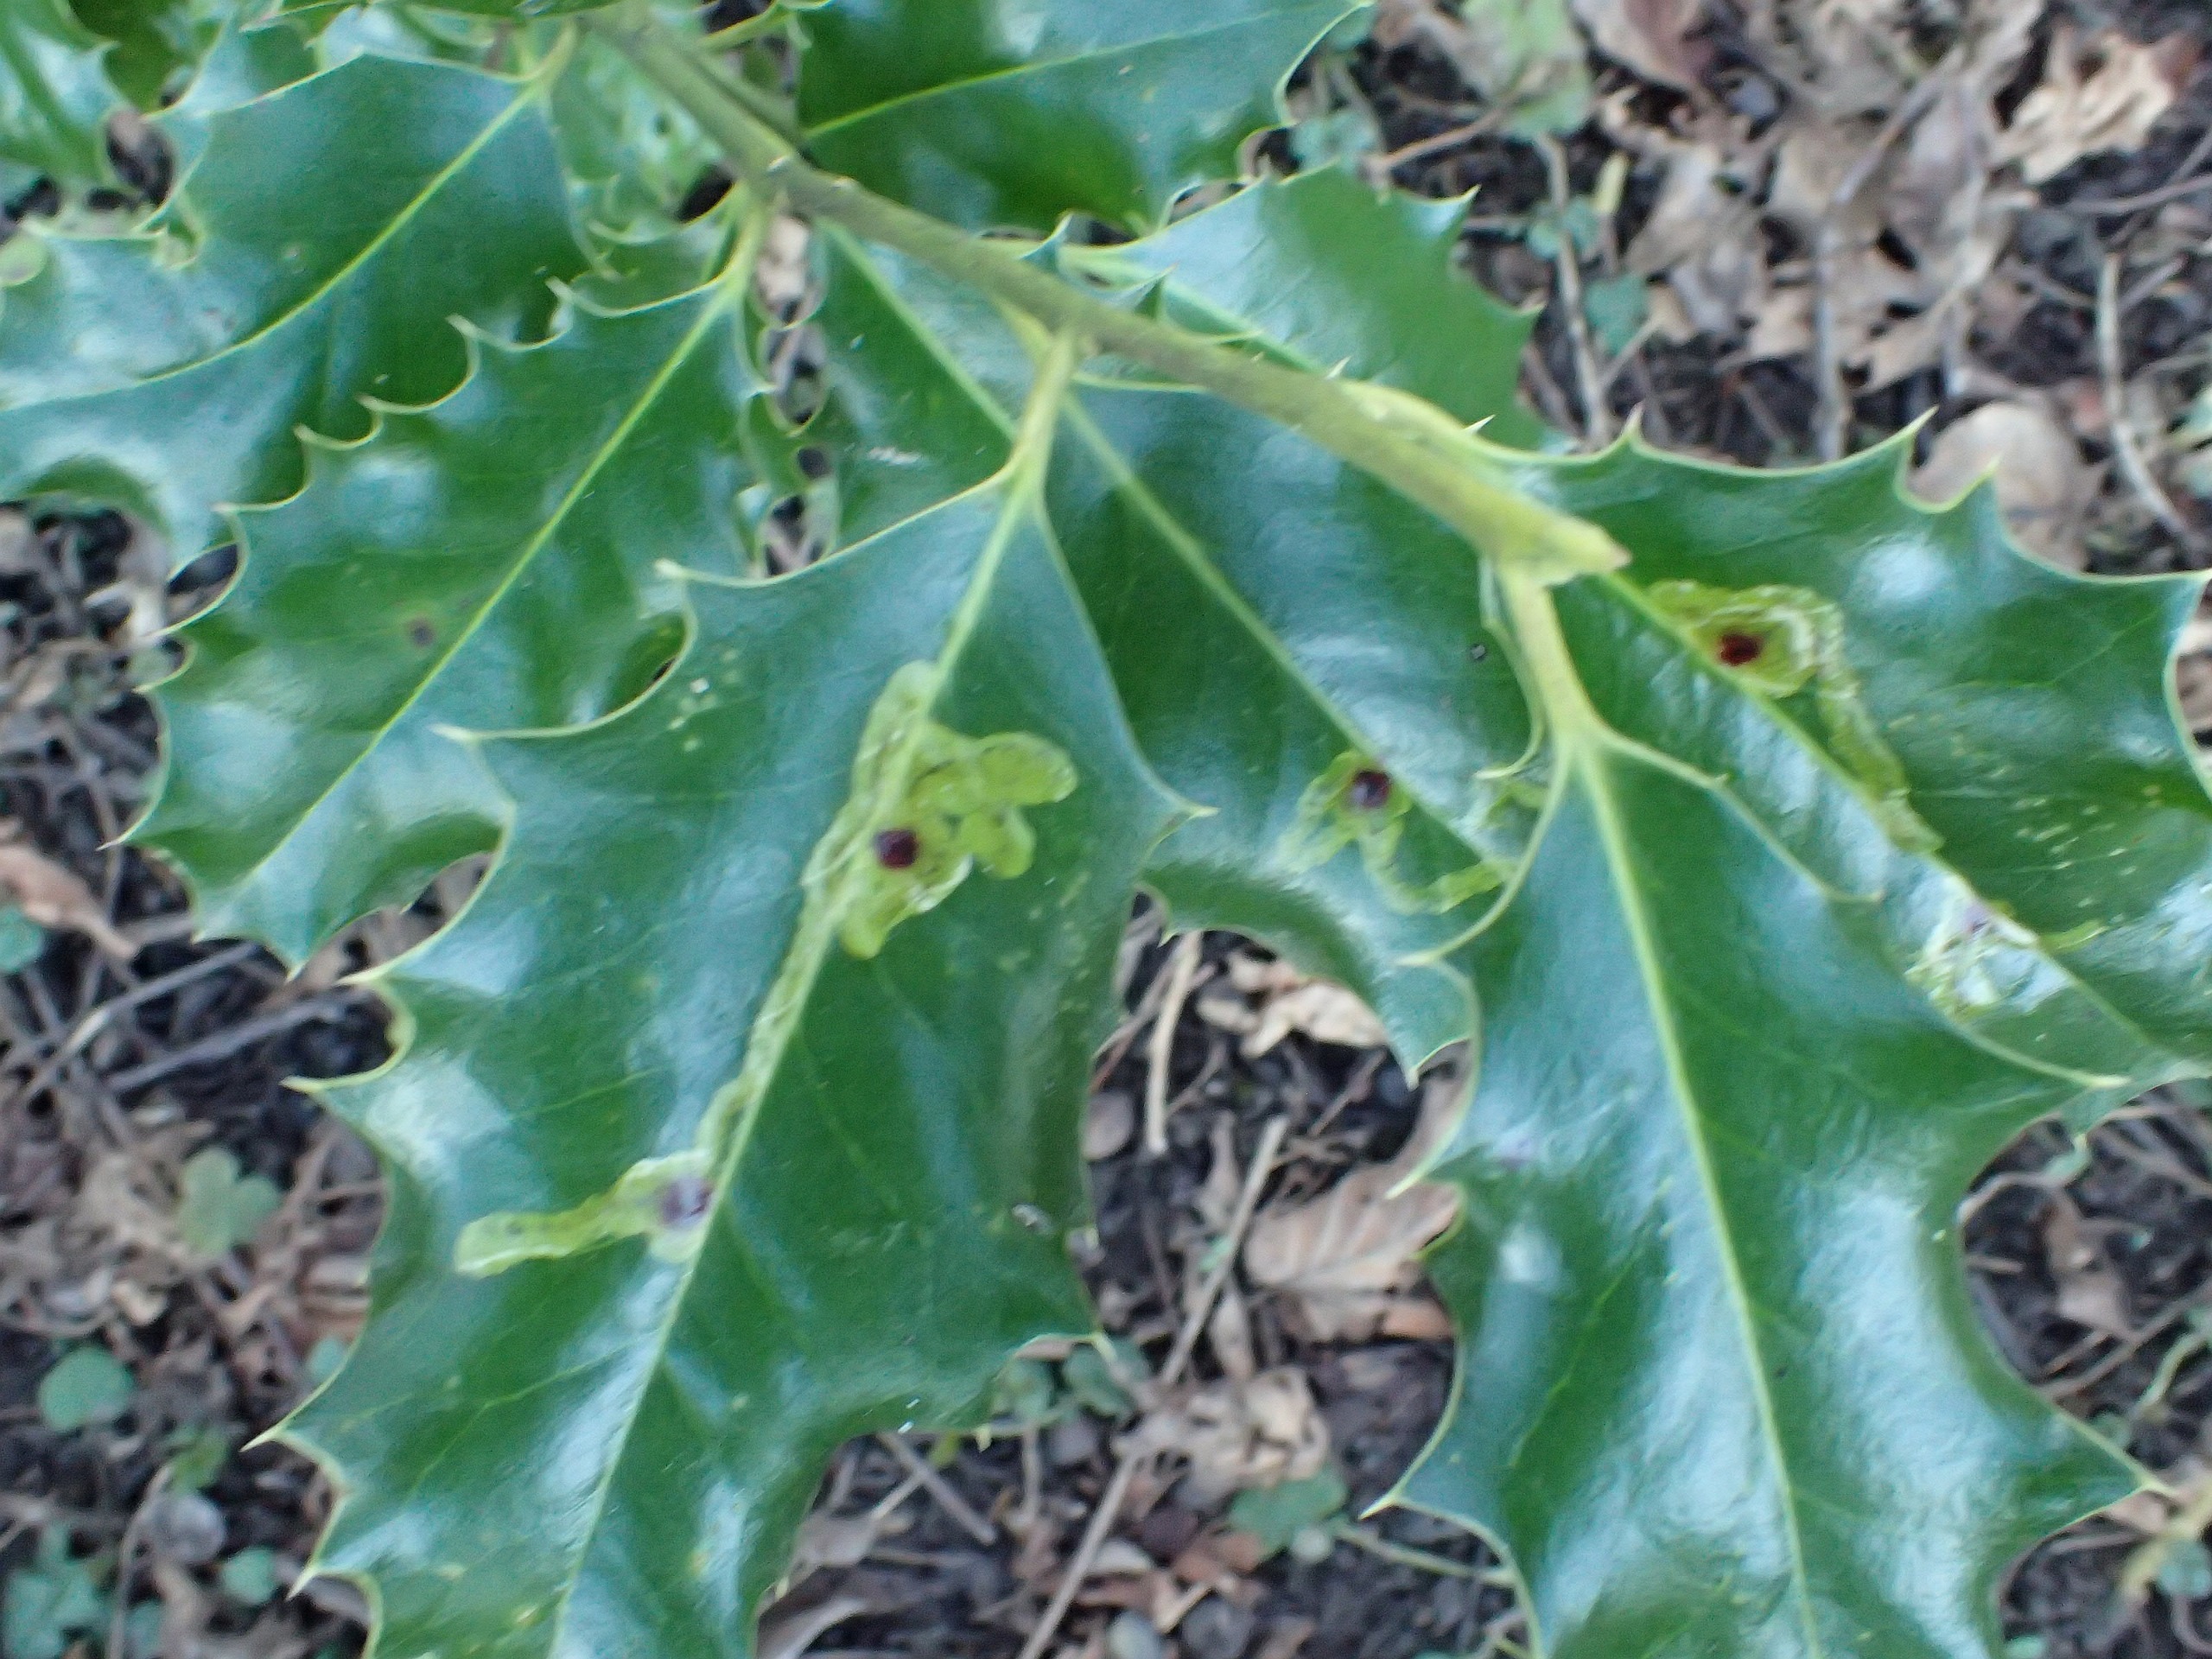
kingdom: Plantae
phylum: Tracheophyta
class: Magnoliopsida
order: Aquifoliales
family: Aquifoliaceae
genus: Ilex
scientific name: Ilex aquifolium
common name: Kristtorn
